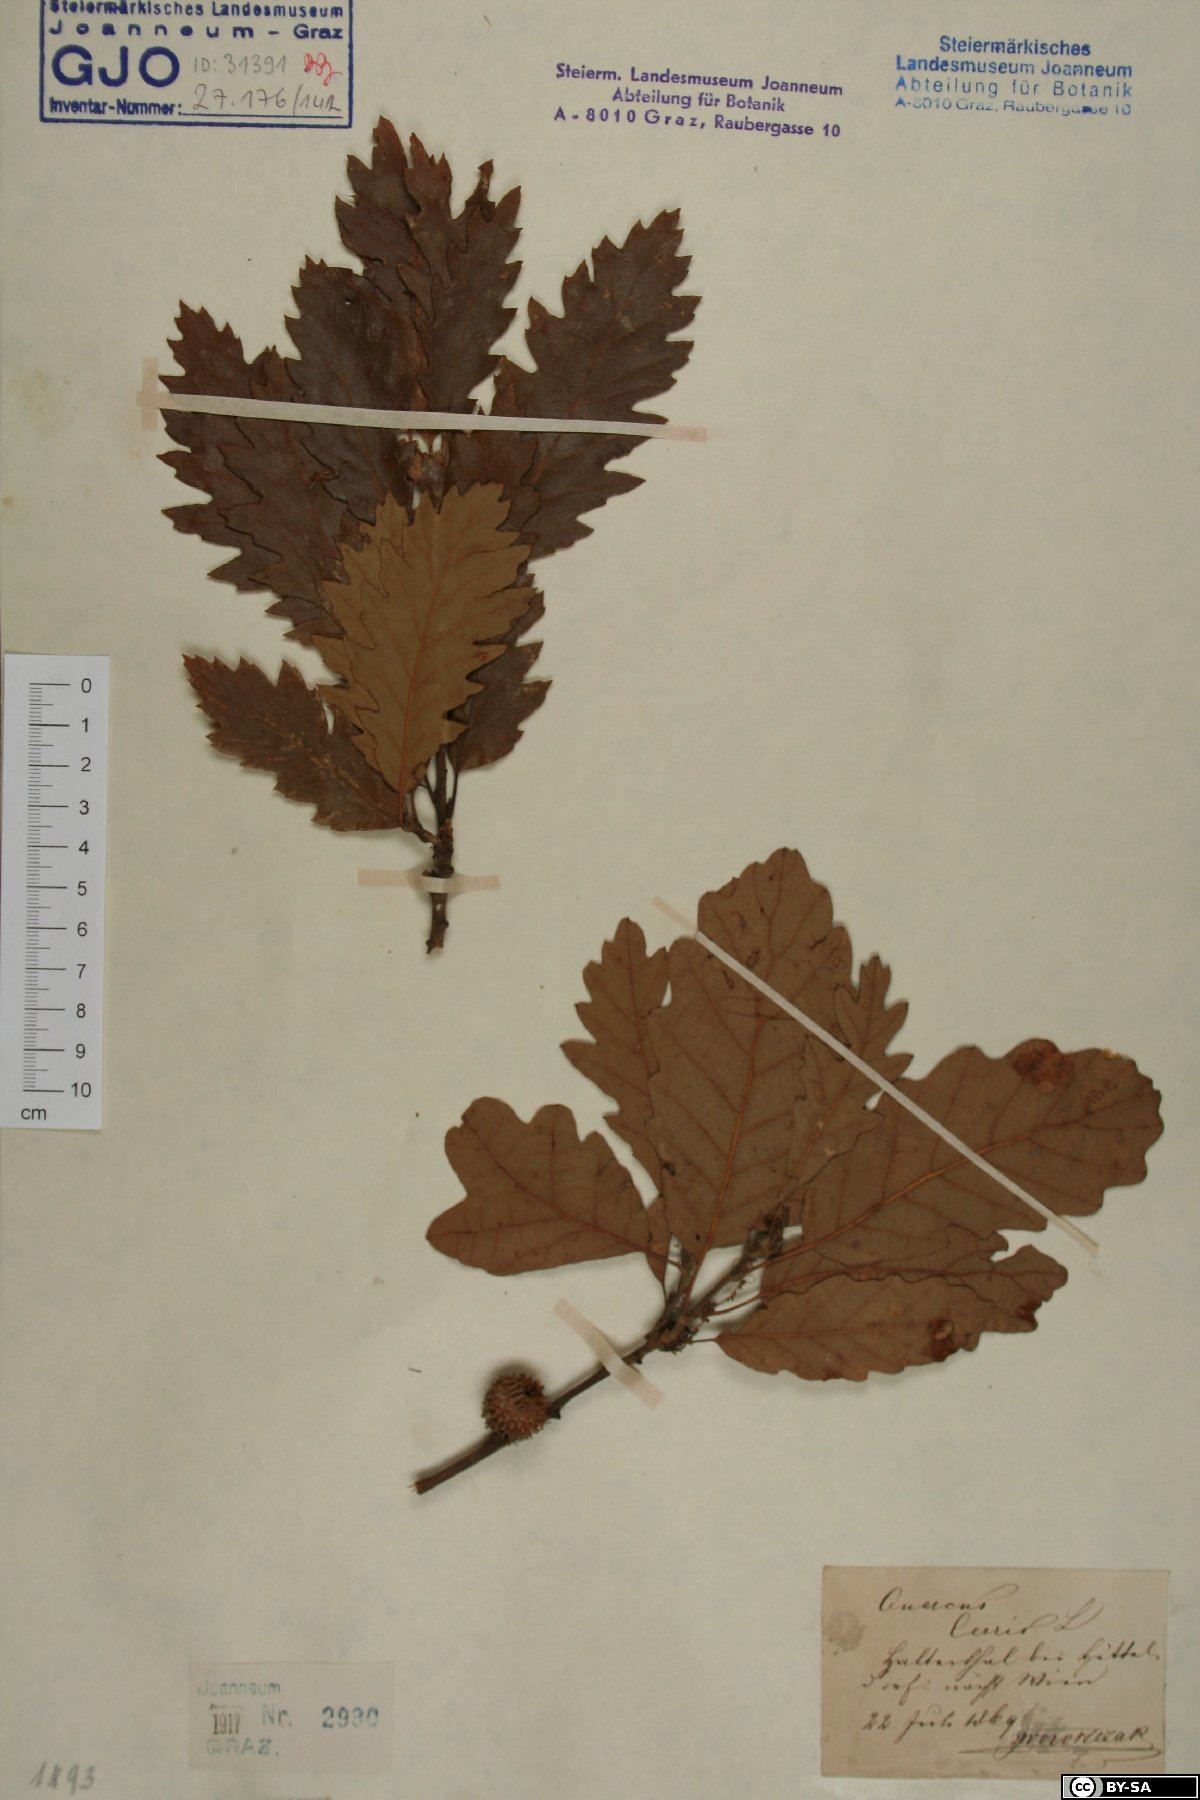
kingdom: Plantae
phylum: Tracheophyta
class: Magnoliopsida
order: Fagales
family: Fagaceae
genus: Quercus
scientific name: Quercus cerris
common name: Turkey oak
